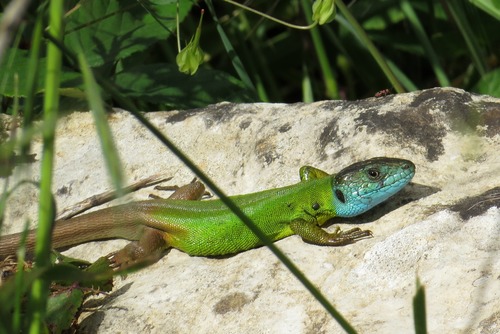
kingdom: Animalia
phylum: Chordata
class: Squamata
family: Lacertidae
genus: Lacerta
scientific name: Lacerta schreiberi
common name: Iberian emerald lizard
